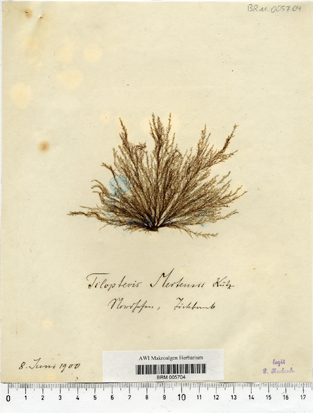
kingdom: Chromista
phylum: Ochrophyta
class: Phaeophyceae
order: Tilopteridales
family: Tilopteridaceae
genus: Tilopteris
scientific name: Tilopteris mertensii
